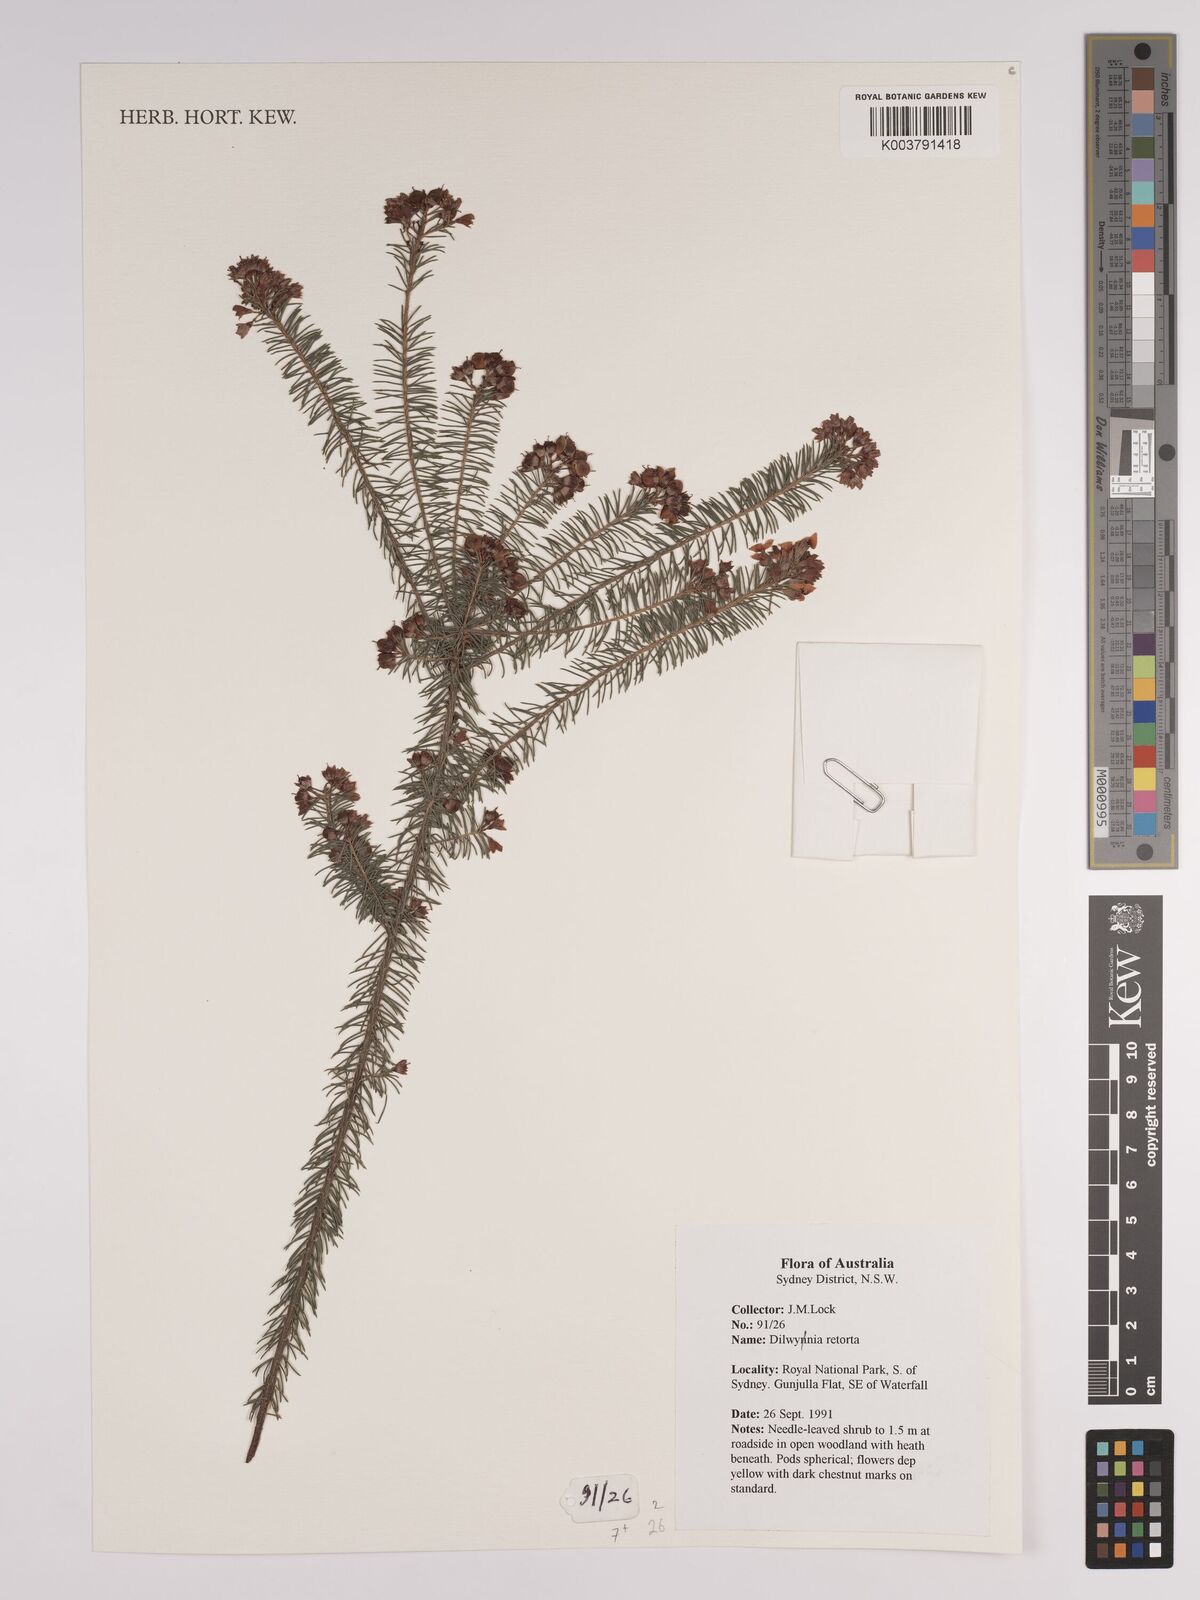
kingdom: Plantae
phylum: Tracheophyta
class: Magnoliopsida
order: Fabales
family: Fabaceae
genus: Dillwynia
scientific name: Dillwynia retorta
